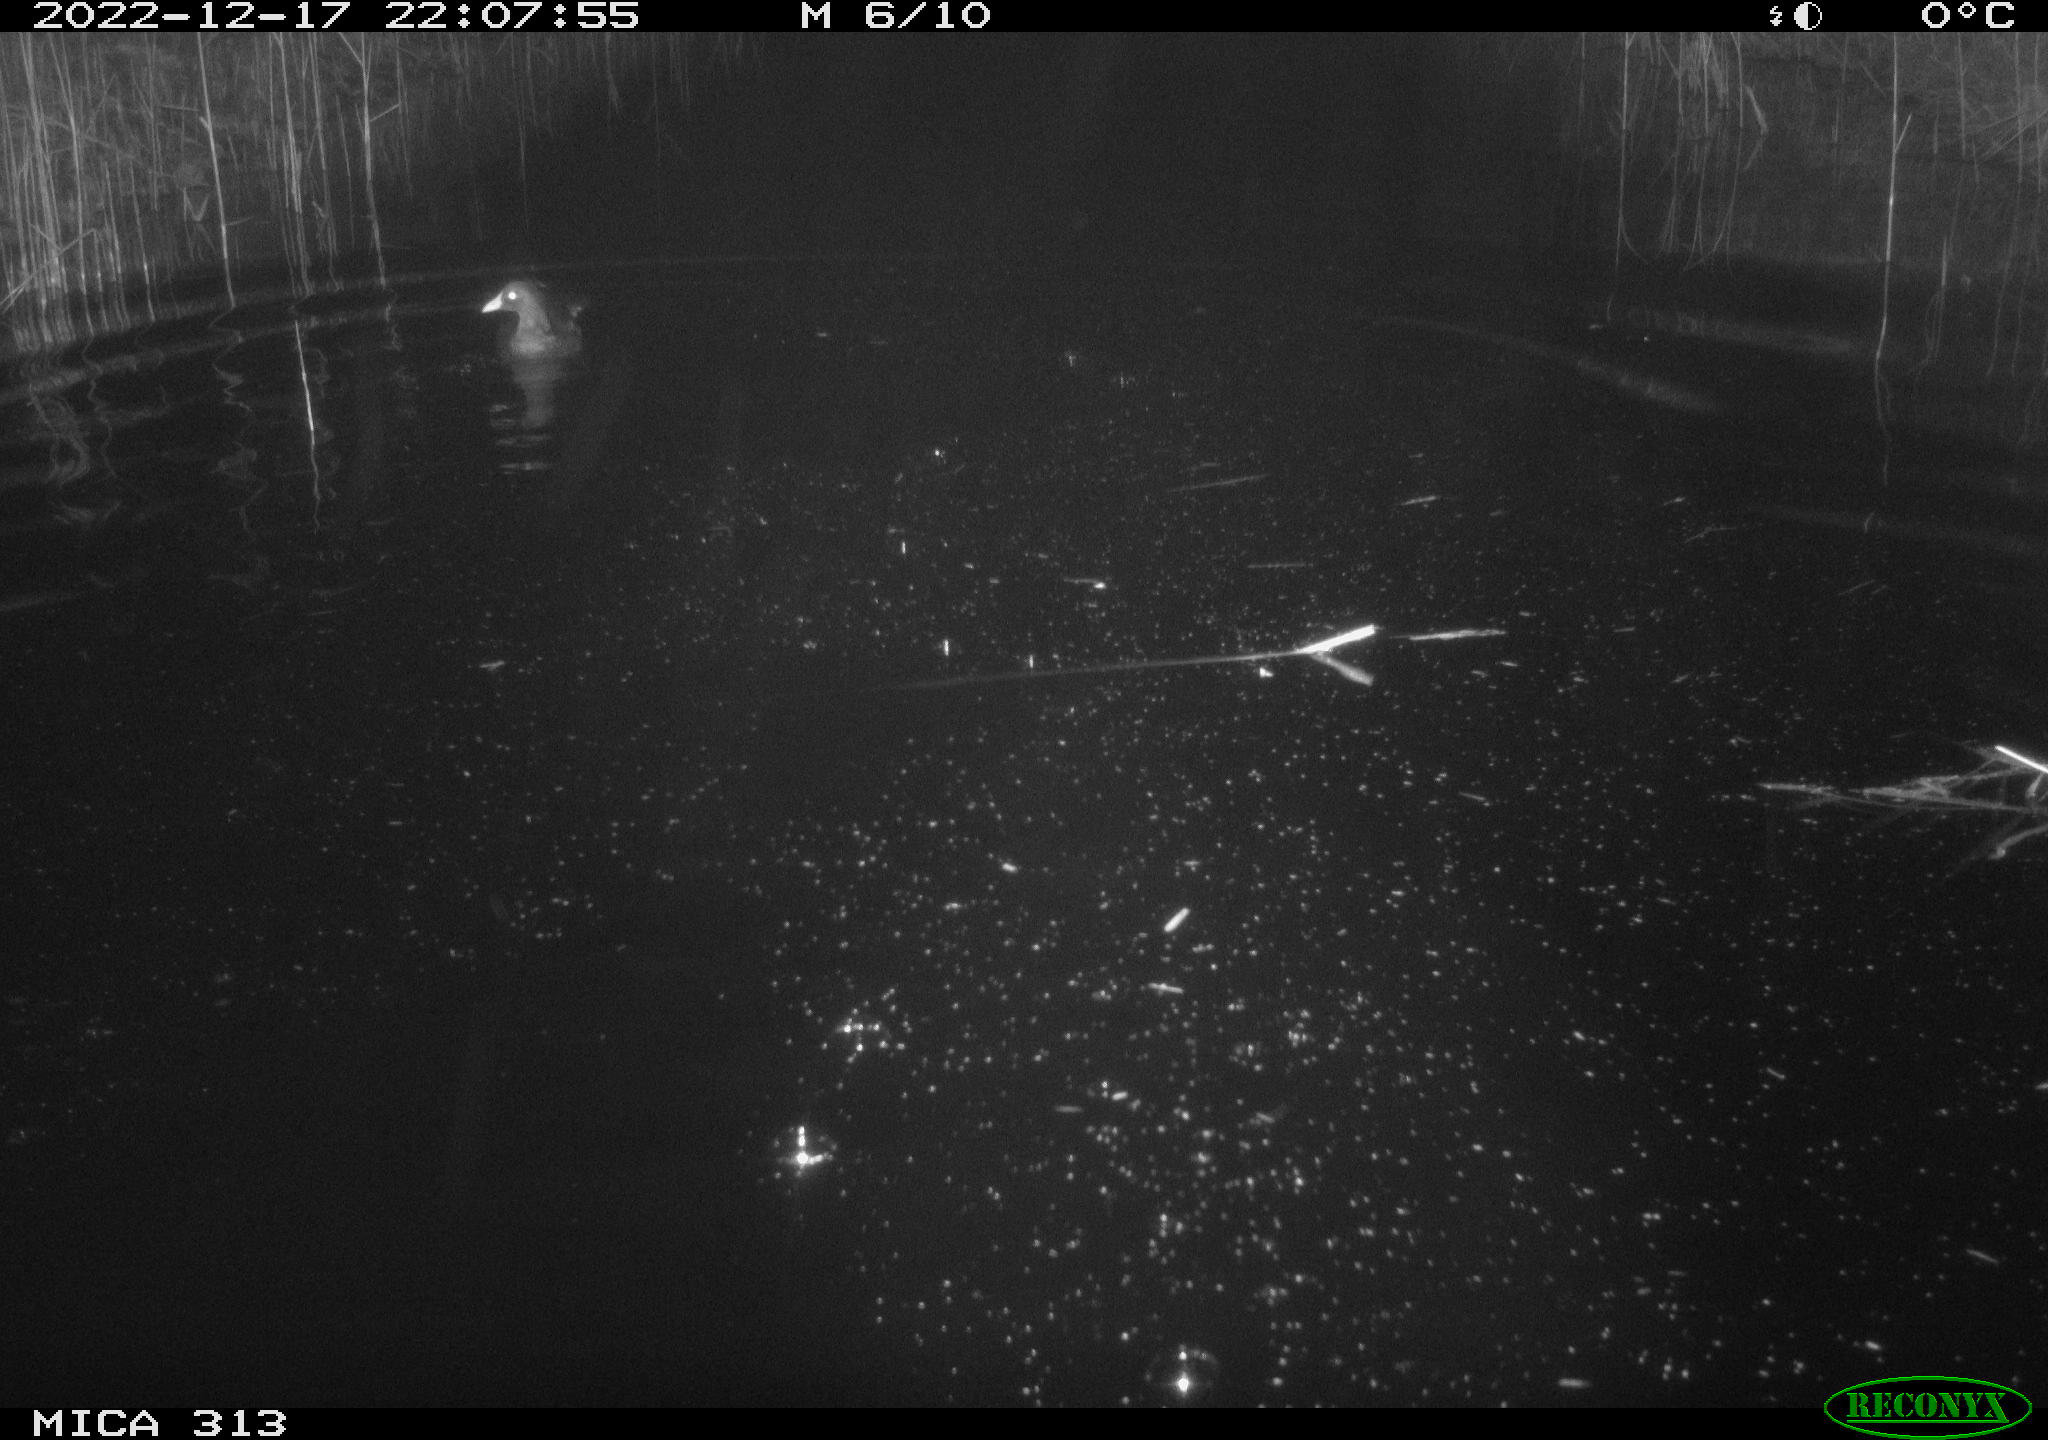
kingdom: Animalia
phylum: Chordata
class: Aves
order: Gruiformes
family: Rallidae
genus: Gallinula
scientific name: Gallinula chloropus
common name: Common moorhen
